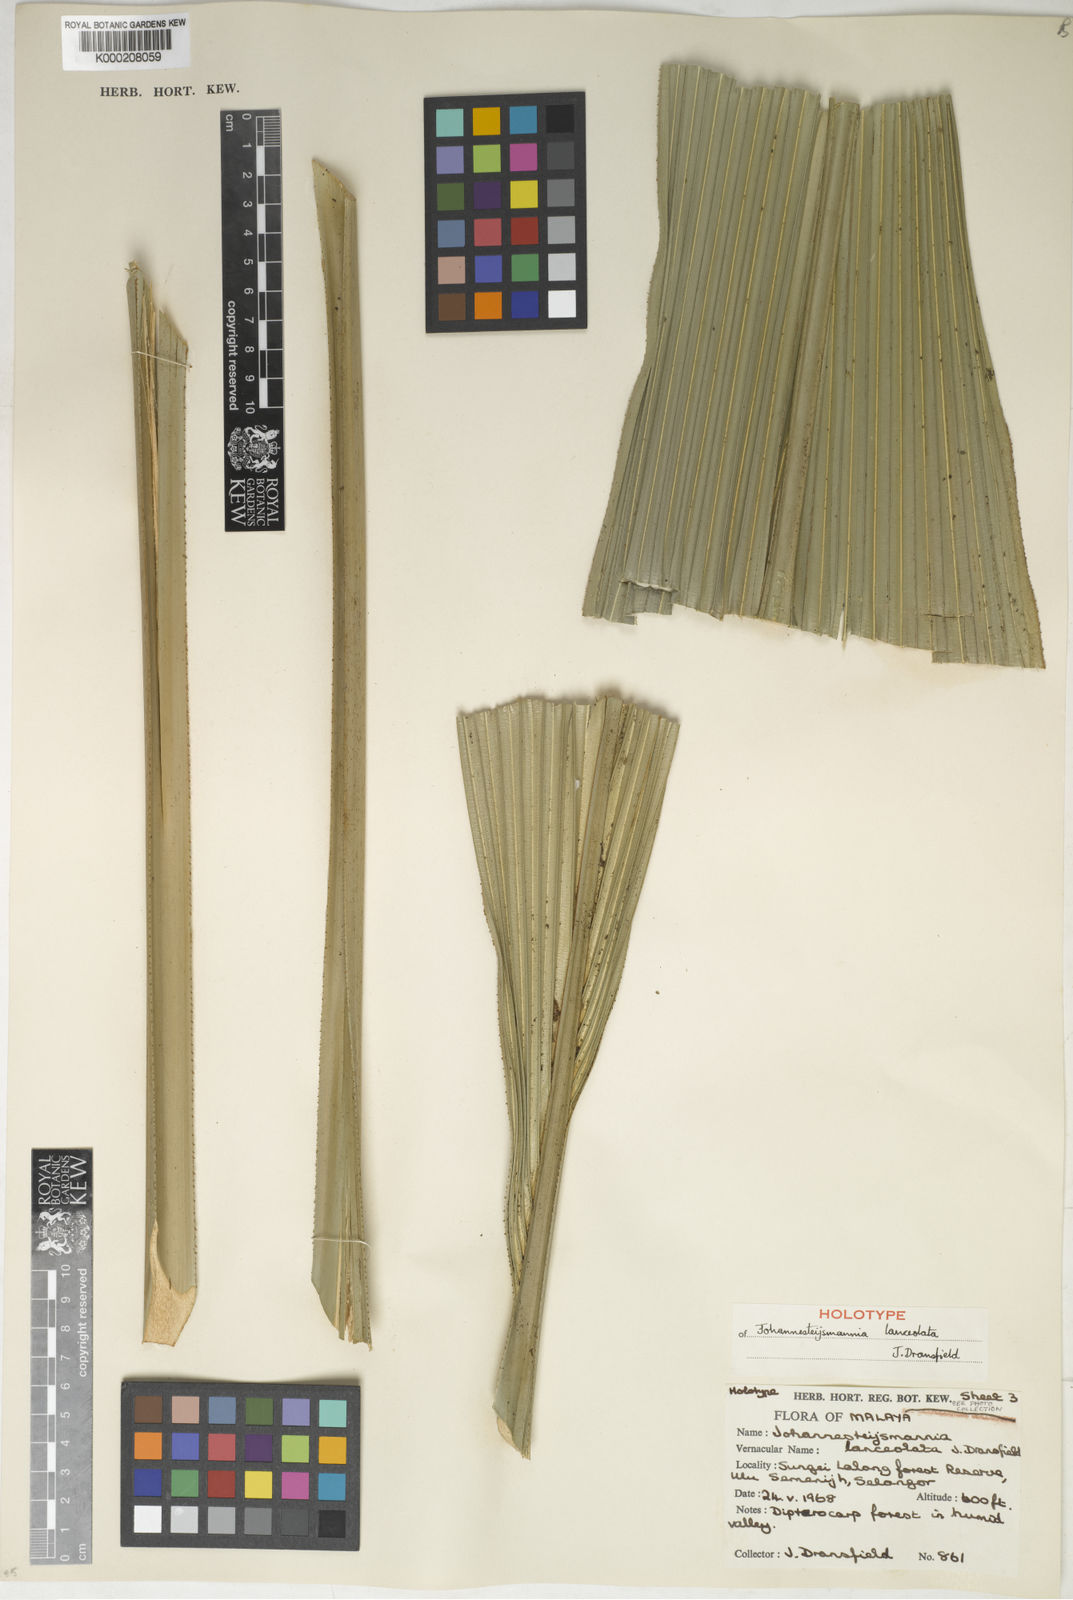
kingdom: Plantae
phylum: Tracheophyta
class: Liliopsida
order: Arecales
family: Arecaceae
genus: Johannesteijsmannia
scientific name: Johannesteijsmannia lanceolata
